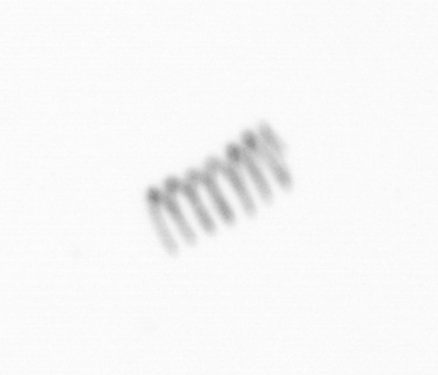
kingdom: Chromista
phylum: Ochrophyta
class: Bacillariophyceae
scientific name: Bacillariophyceae
